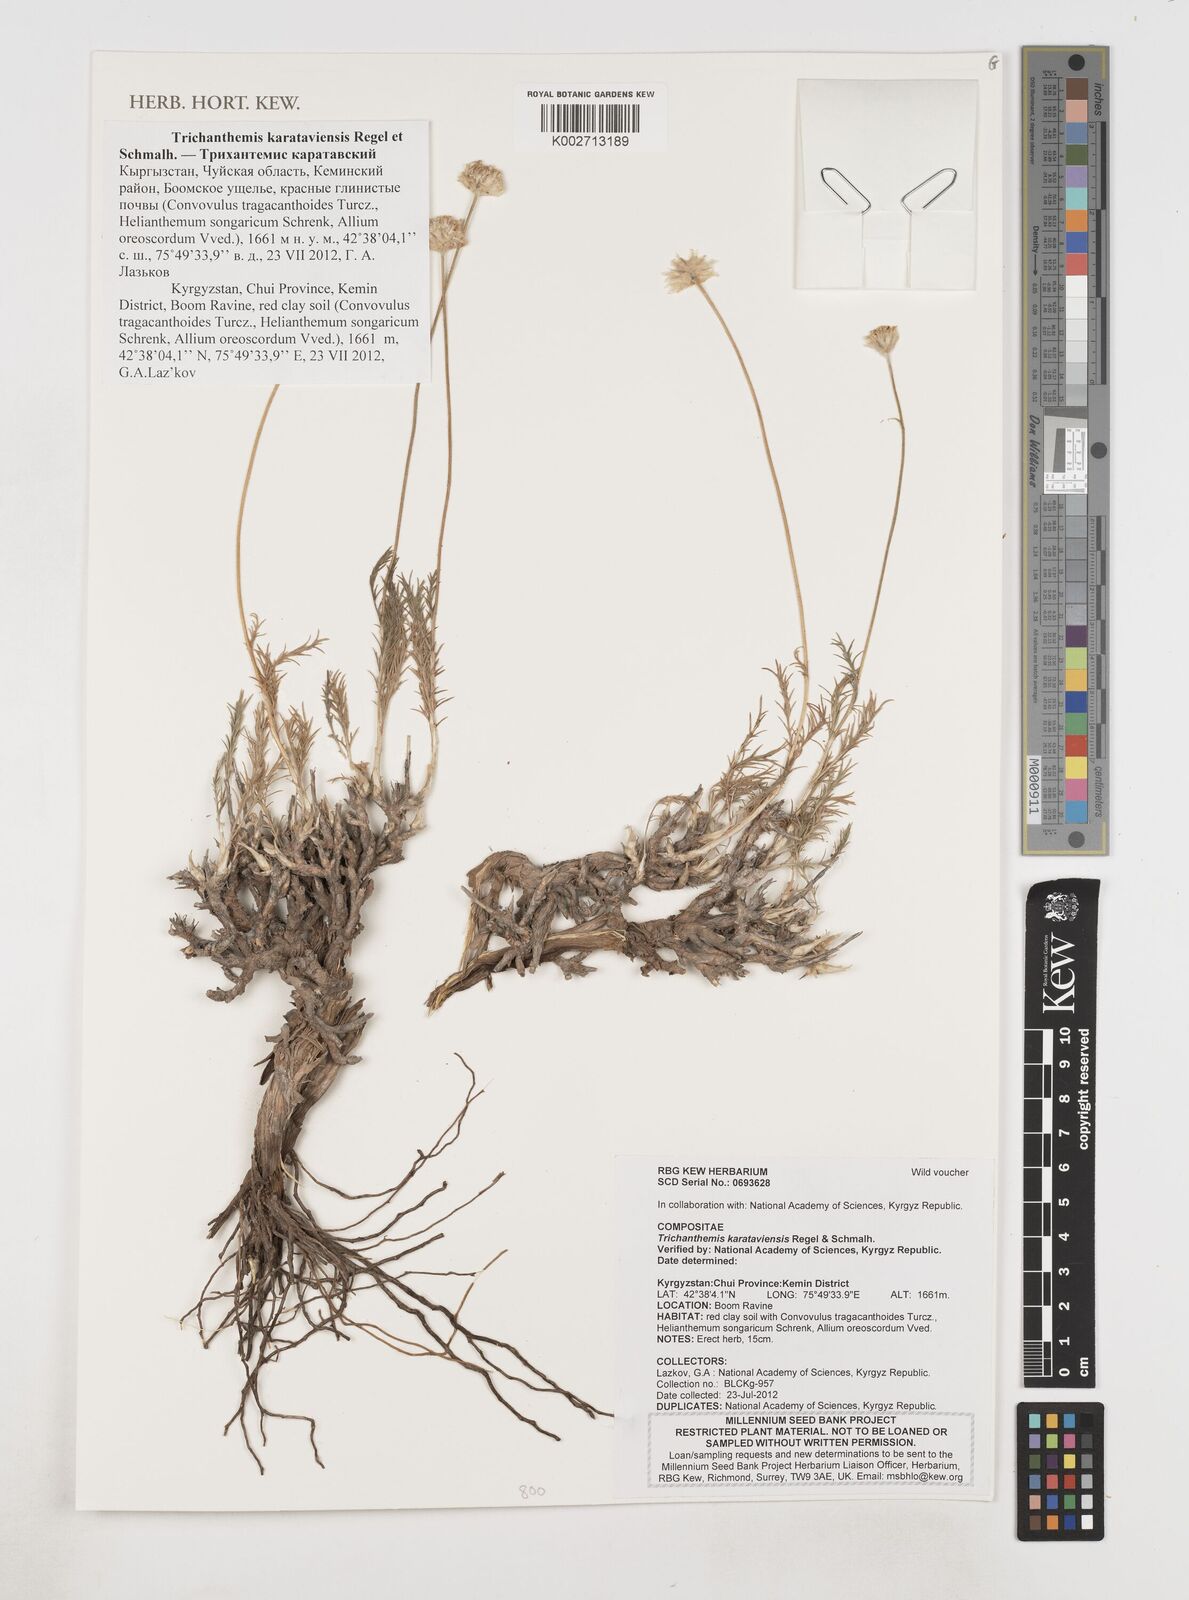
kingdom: Plantae
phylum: Tracheophyta
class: Magnoliopsida
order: Asterales
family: Asteraceae
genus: Trichanthemis
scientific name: Trichanthemis karataviensis
